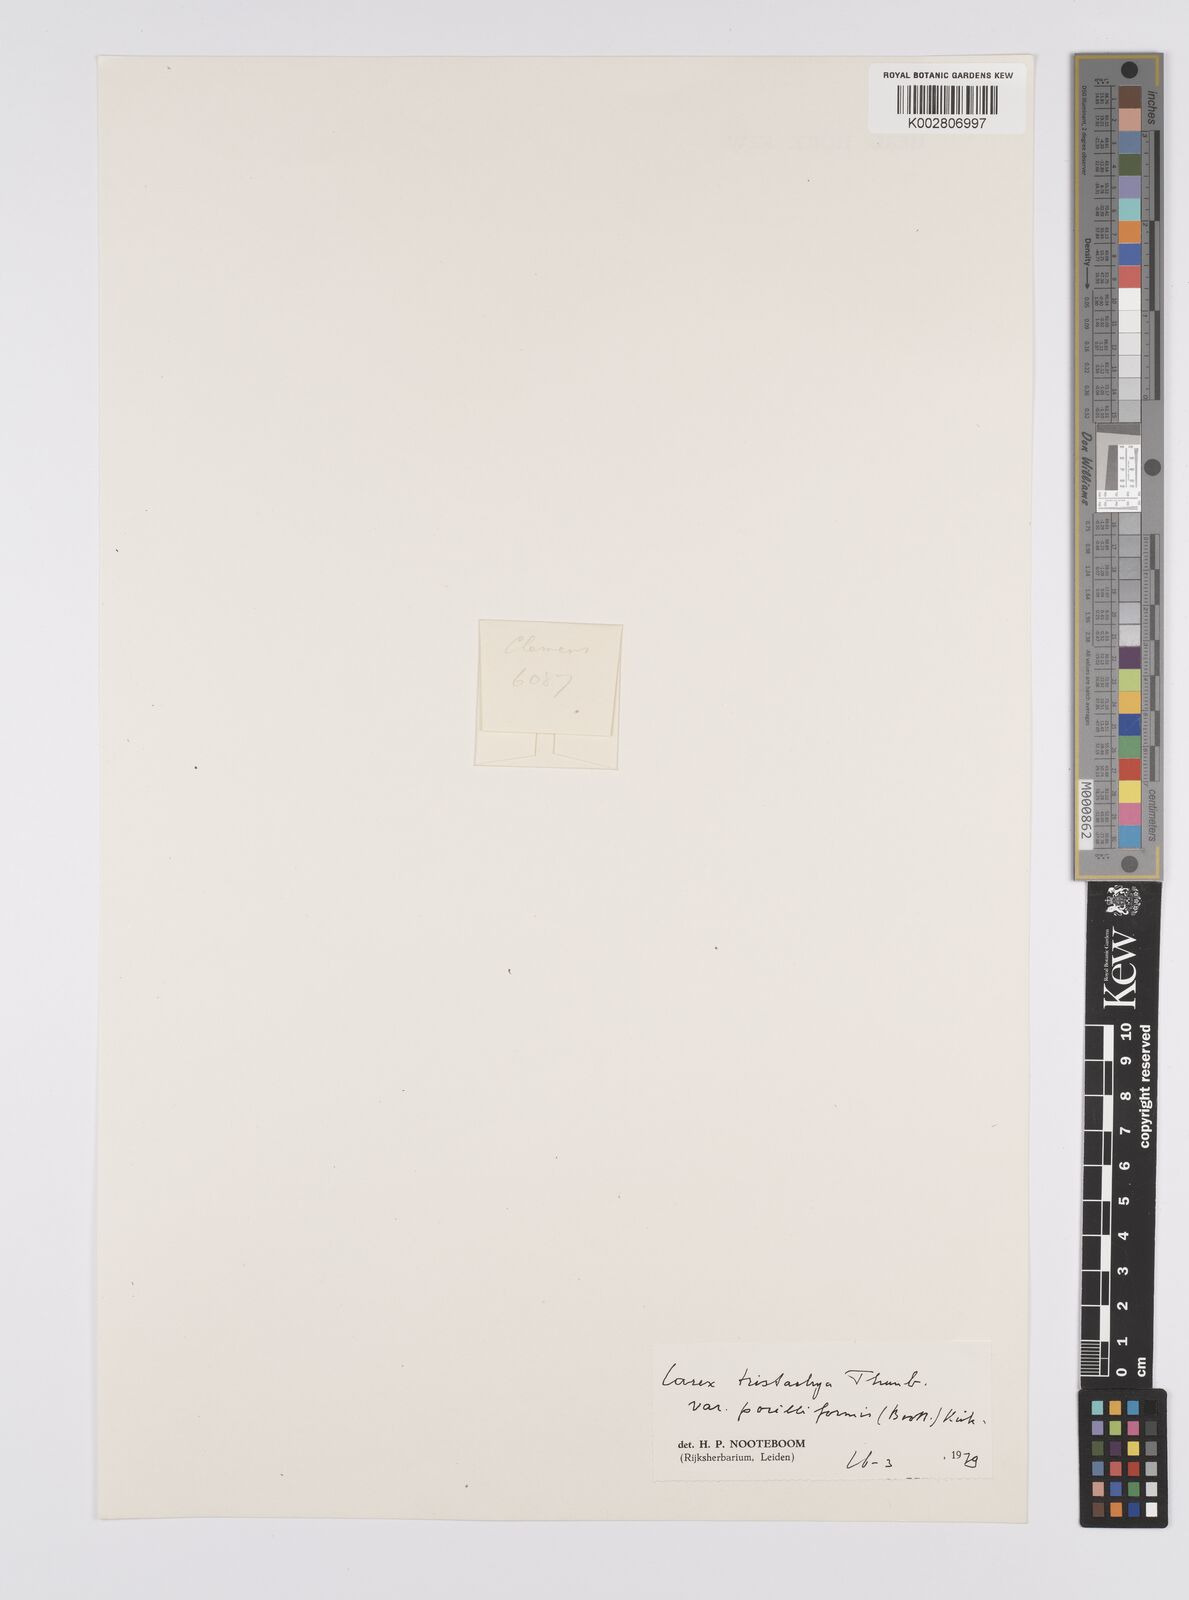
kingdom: Plantae
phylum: Tracheophyta
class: Liliopsida
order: Poales
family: Cyperaceae
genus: Carex
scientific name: Carex tristachya
